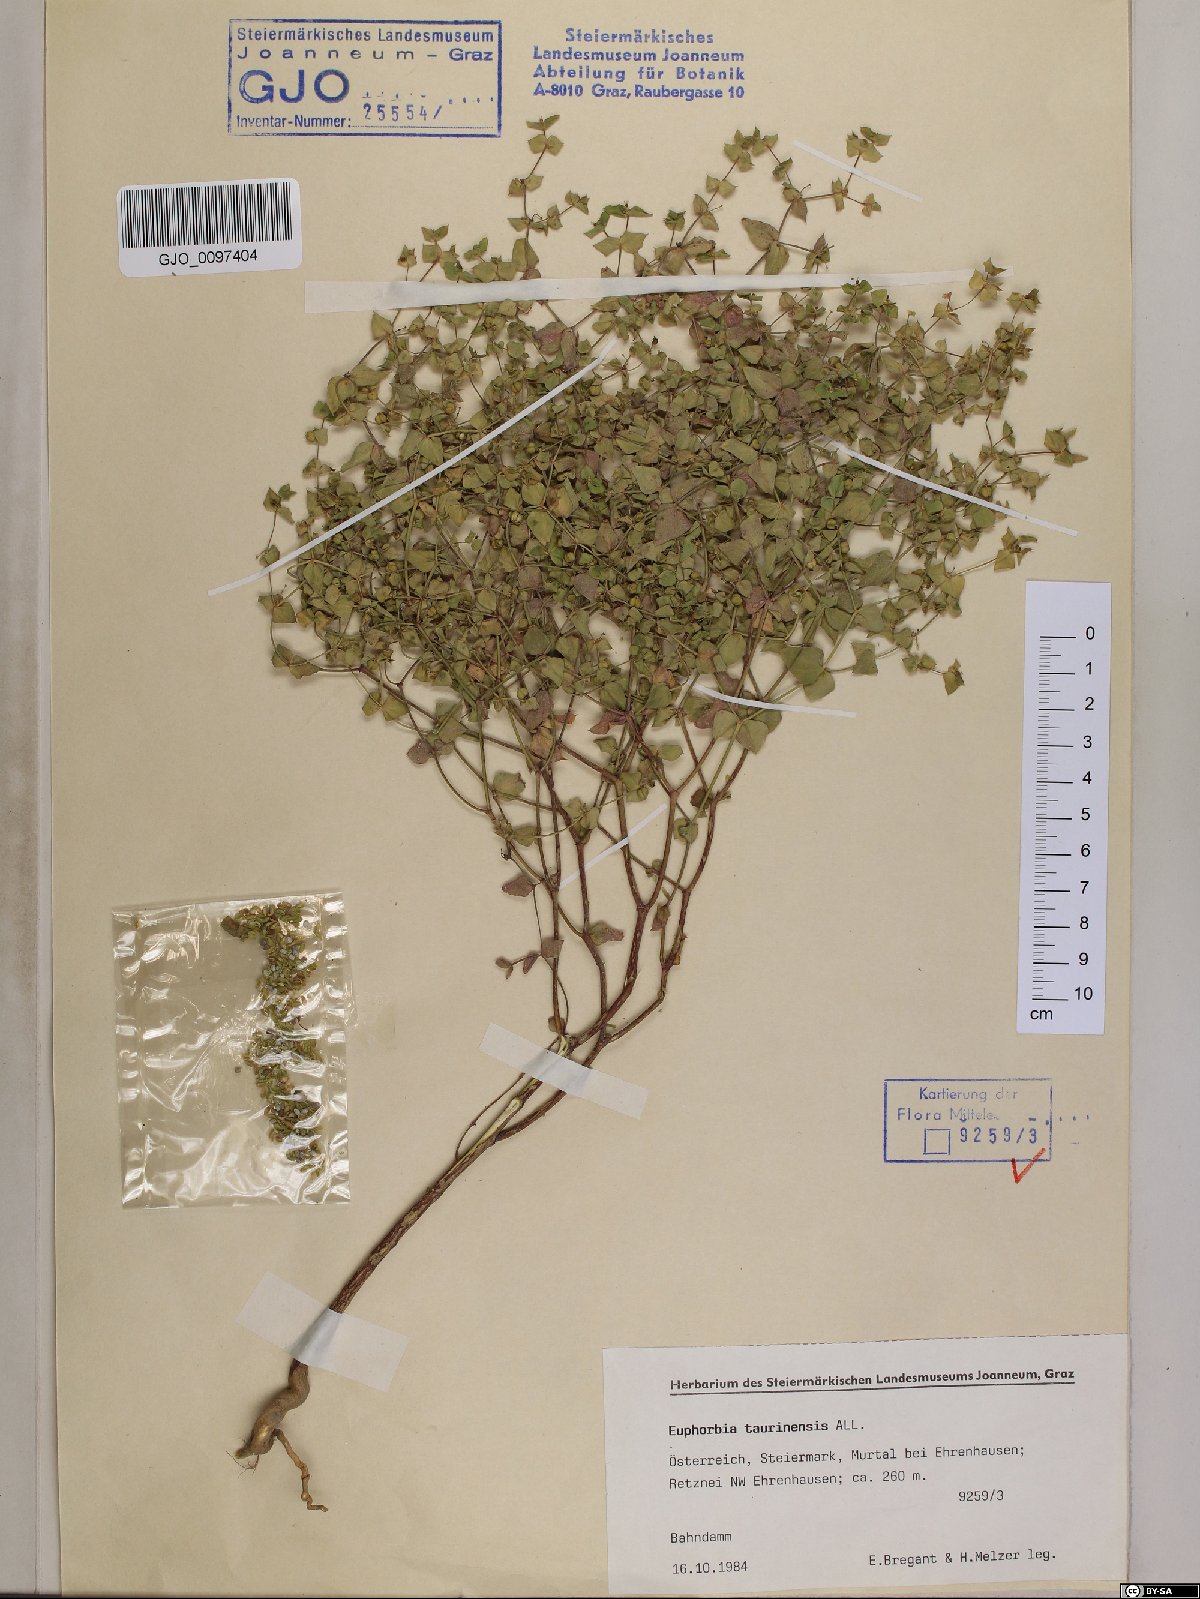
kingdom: Plantae
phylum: Tracheophyta
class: Magnoliopsida
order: Malpighiales
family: Euphorbiaceae
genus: Euphorbia
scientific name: Euphorbia taurinensis
